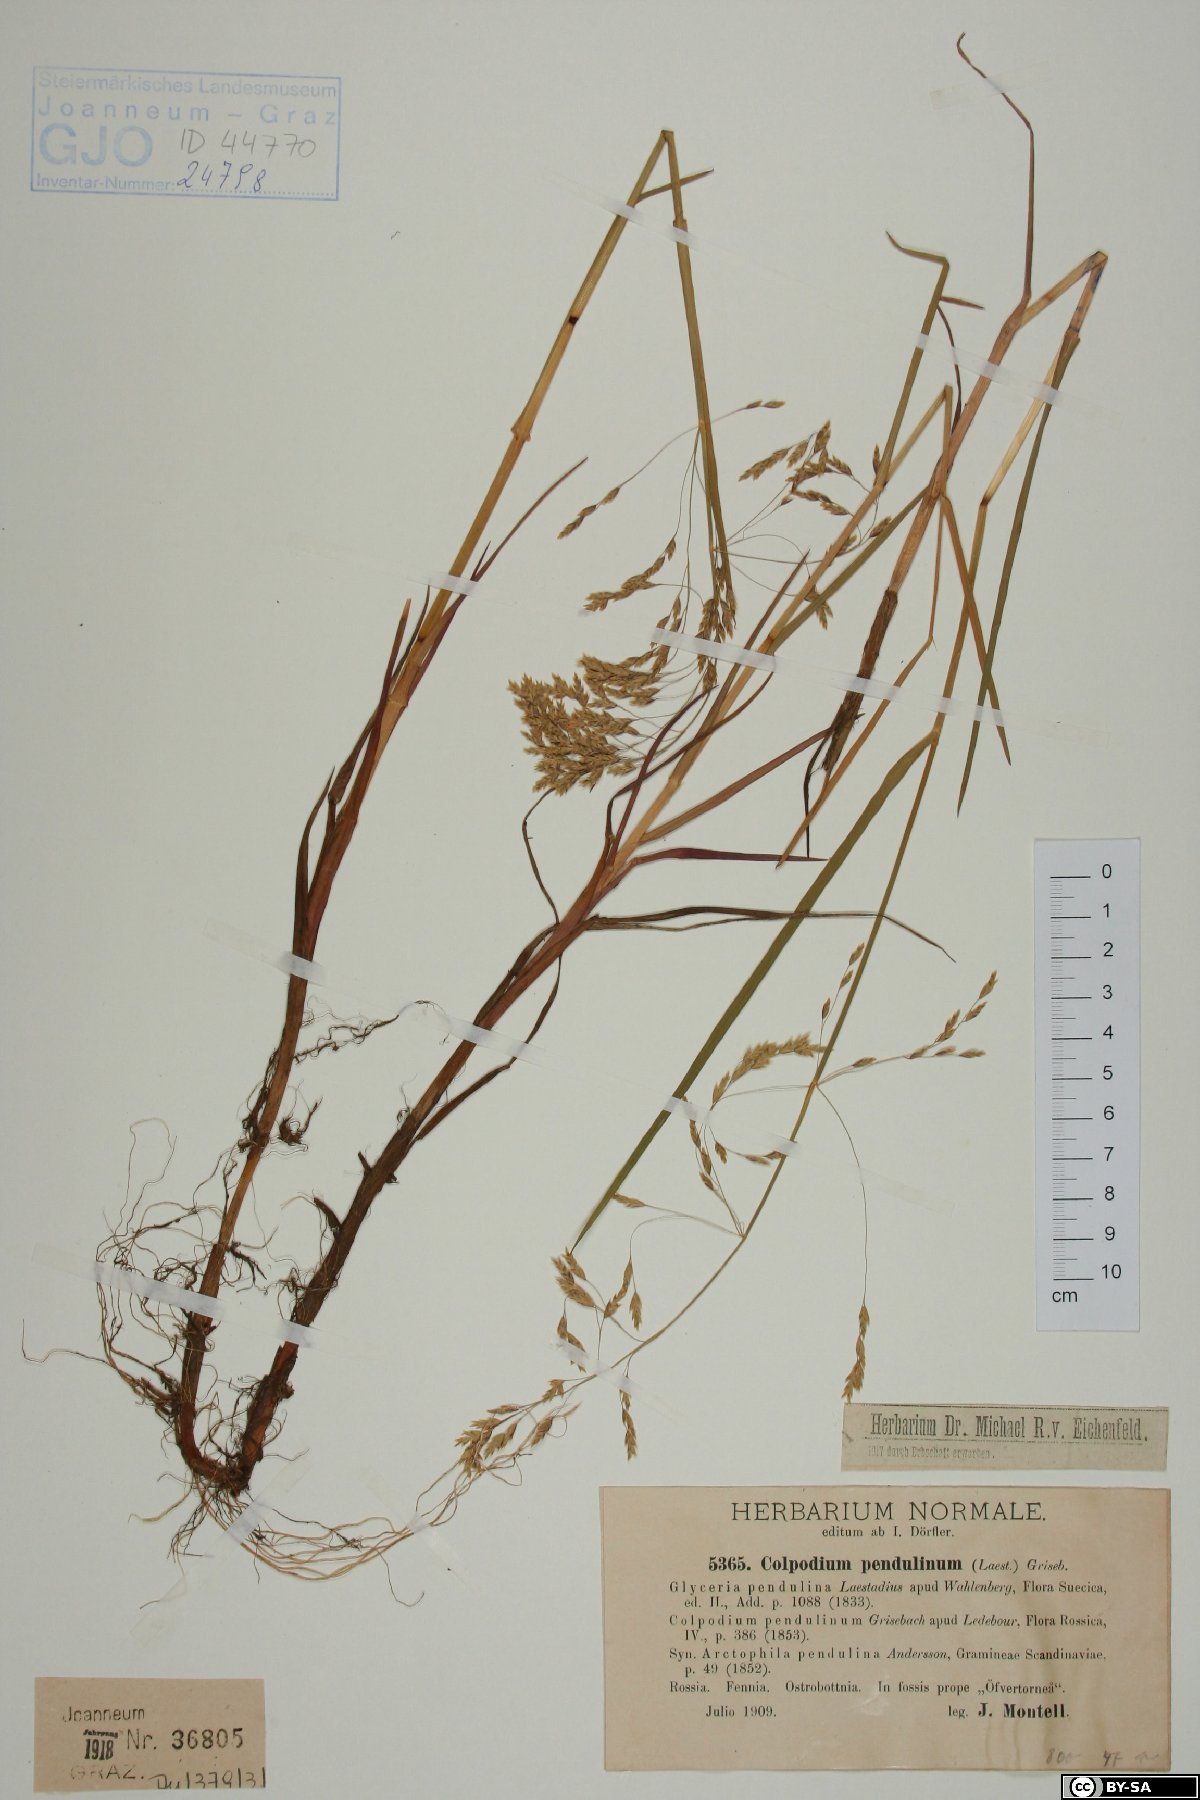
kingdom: Plantae
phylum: Tracheophyta
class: Liliopsida
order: Poales
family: Poaceae
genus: Dupontia
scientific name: Dupontia fulva
